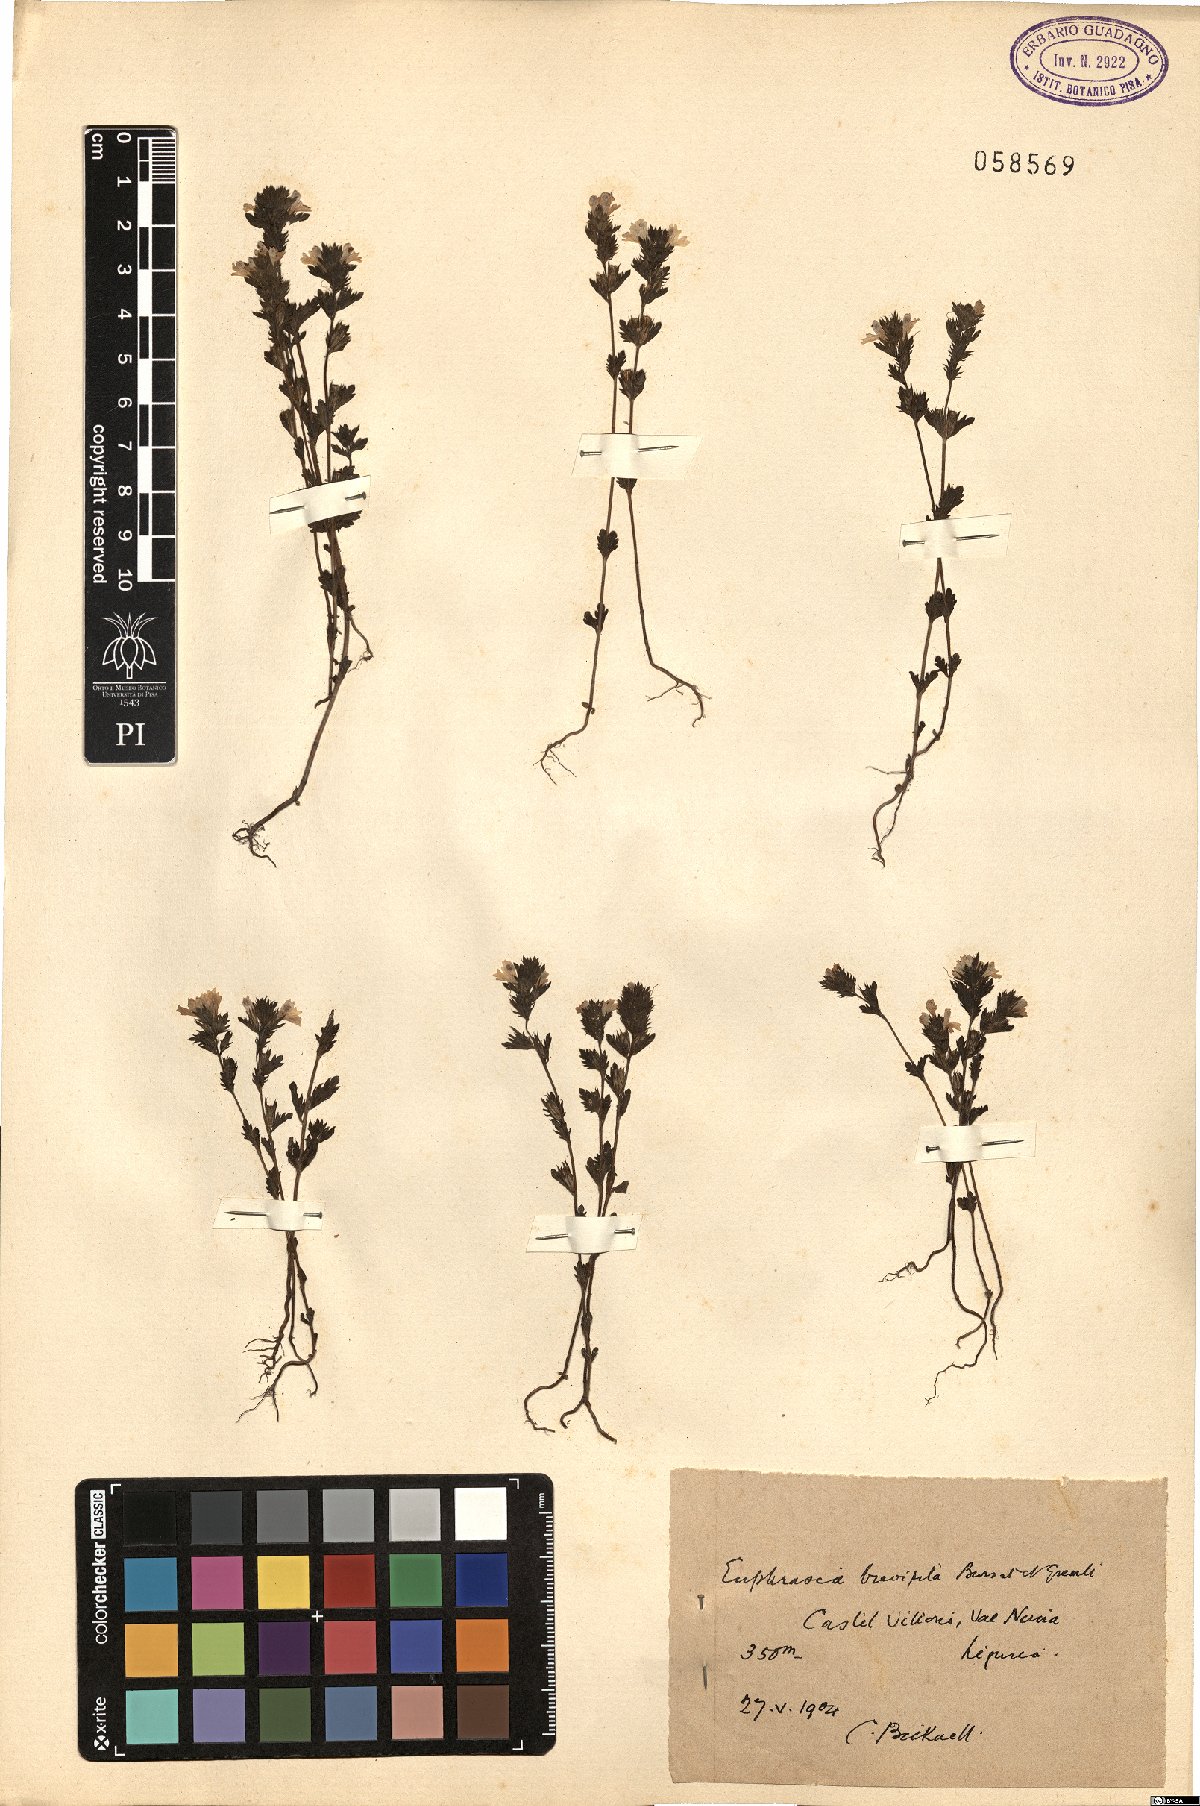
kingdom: Plantae
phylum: Tracheophyta
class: Magnoliopsida
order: Lamiales
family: Orobanchaceae
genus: Euphrasia
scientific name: Euphrasia vernalis
